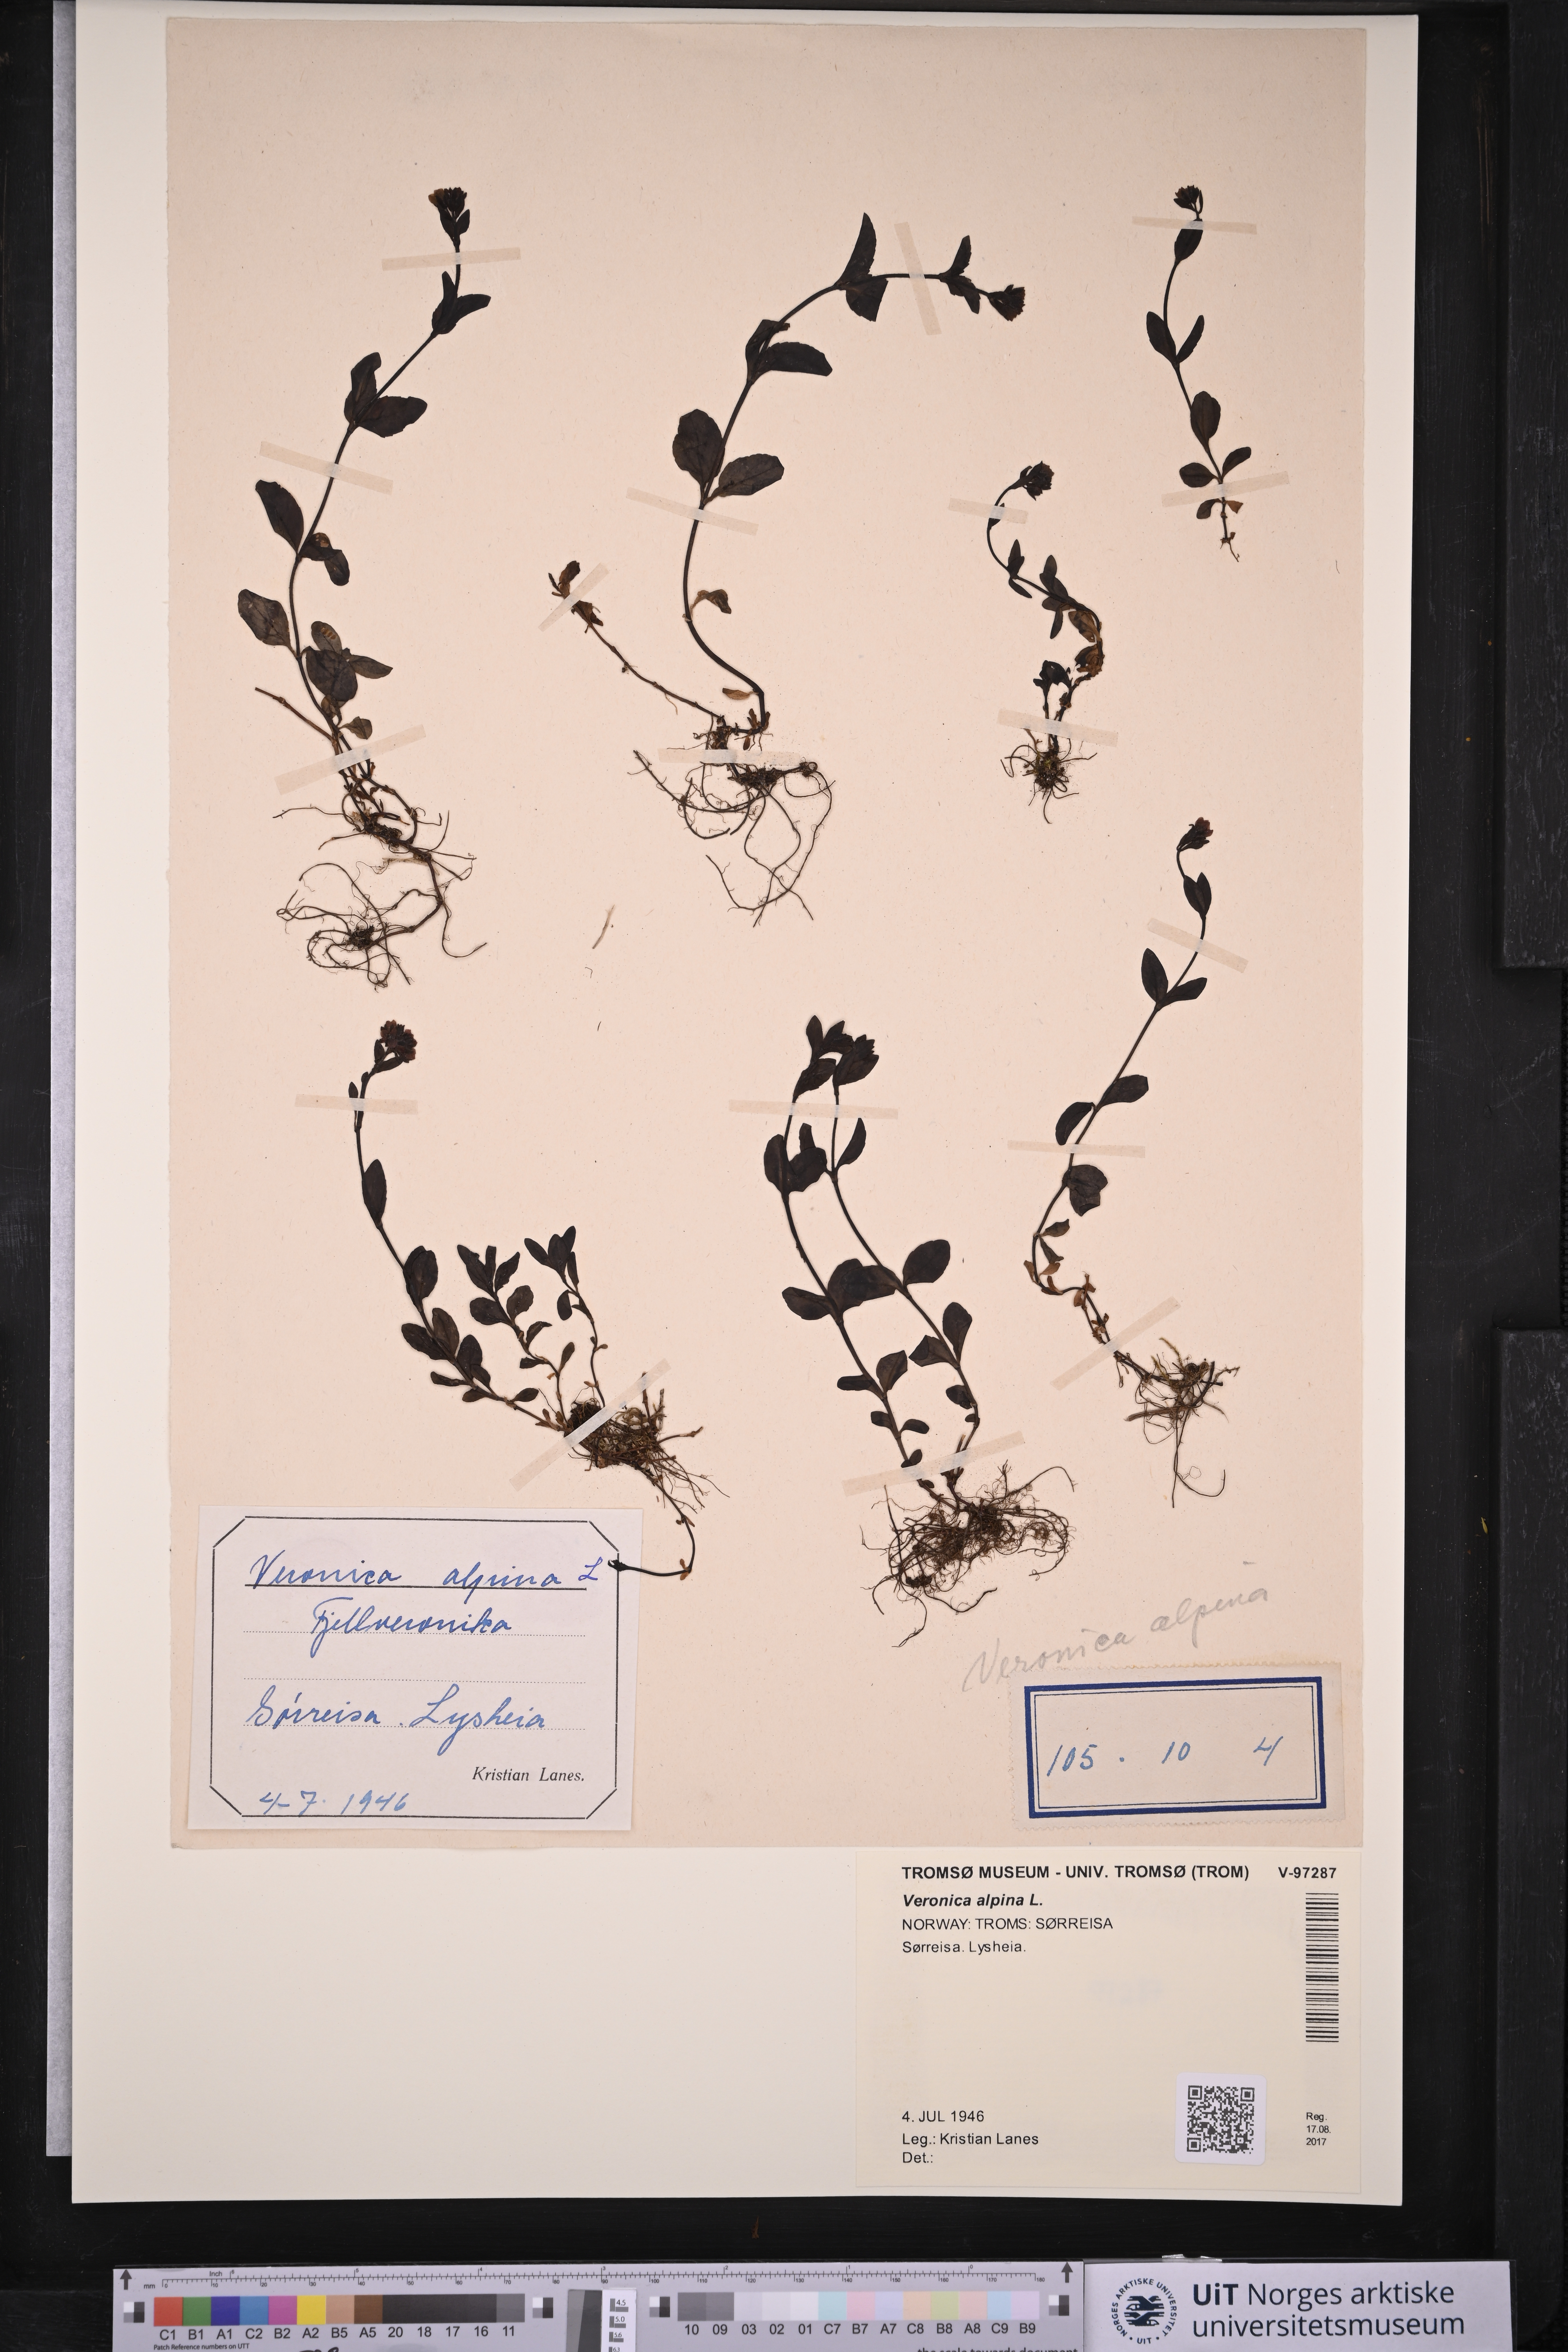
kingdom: Plantae
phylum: Tracheophyta
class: Magnoliopsida
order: Lamiales
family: Plantaginaceae
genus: Veronica
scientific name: Veronica alpina
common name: Alpine speedwell
